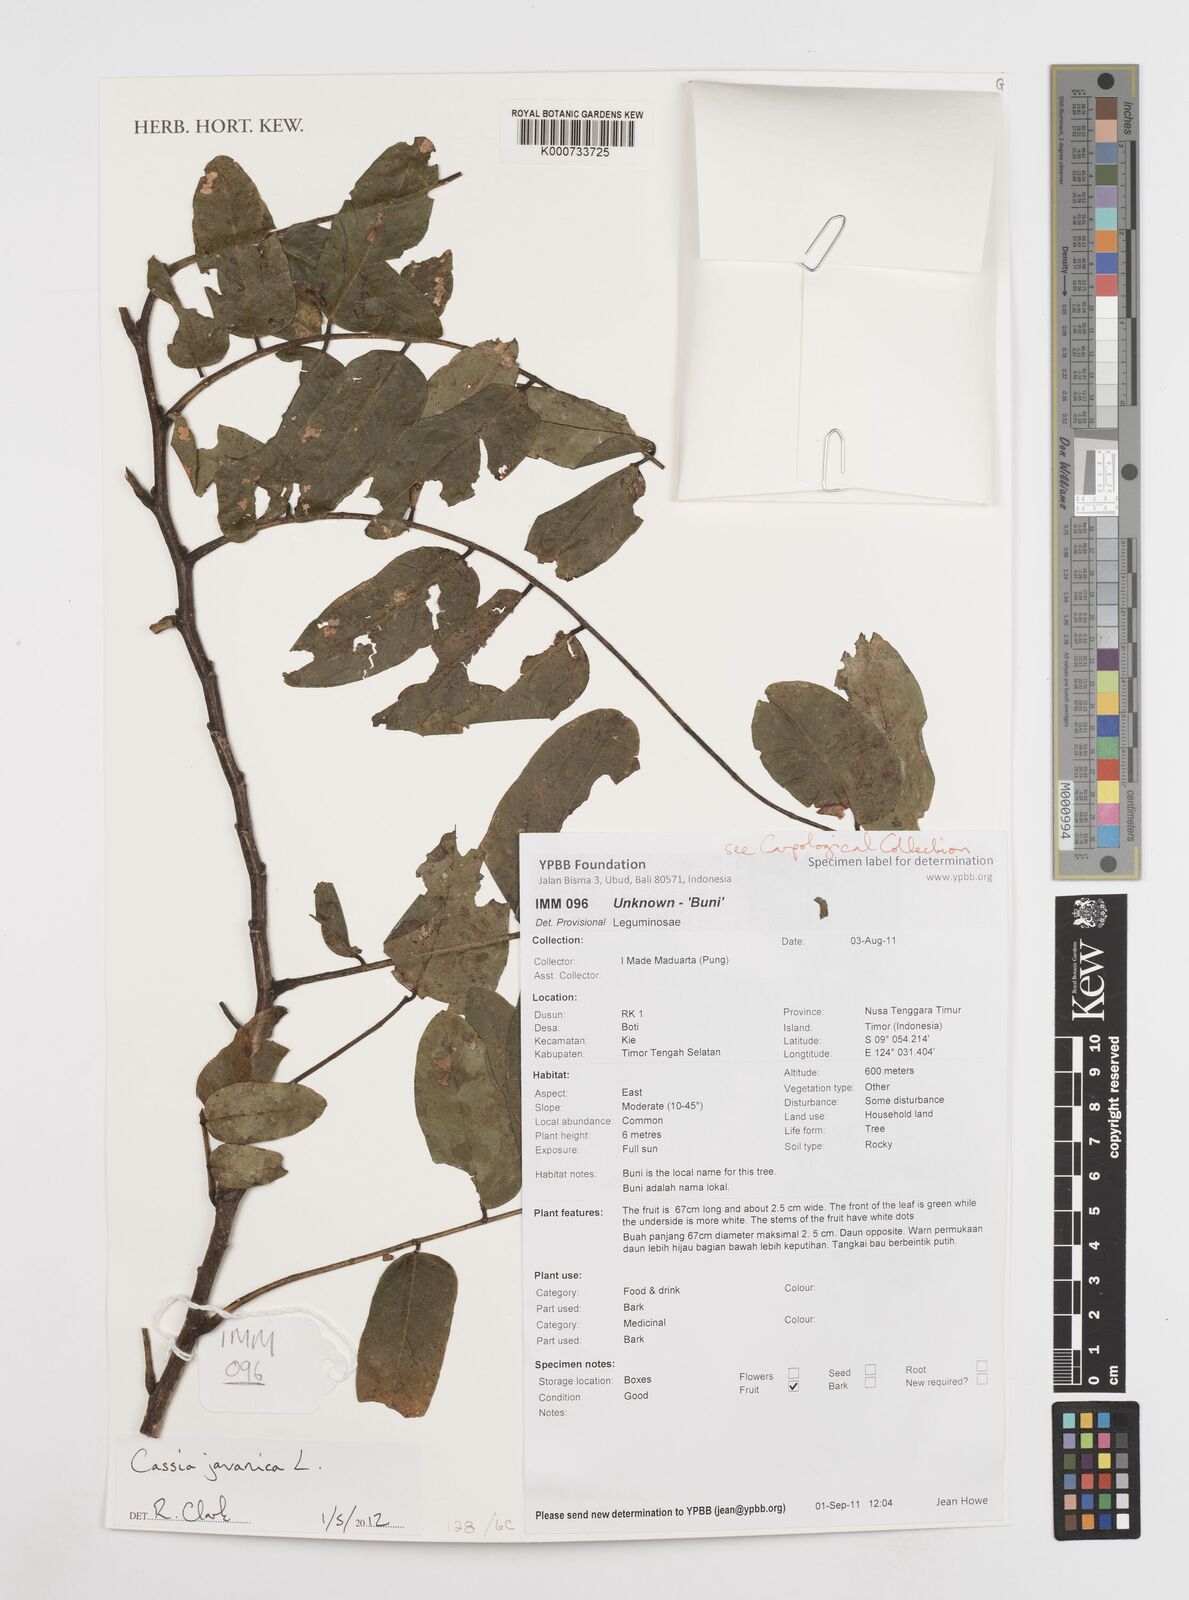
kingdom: Plantae
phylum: Tracheophyta
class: Magnoliopsida
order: Fabales
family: Fabaceae
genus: Cassia
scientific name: Cassia javanica
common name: Apple blossom
